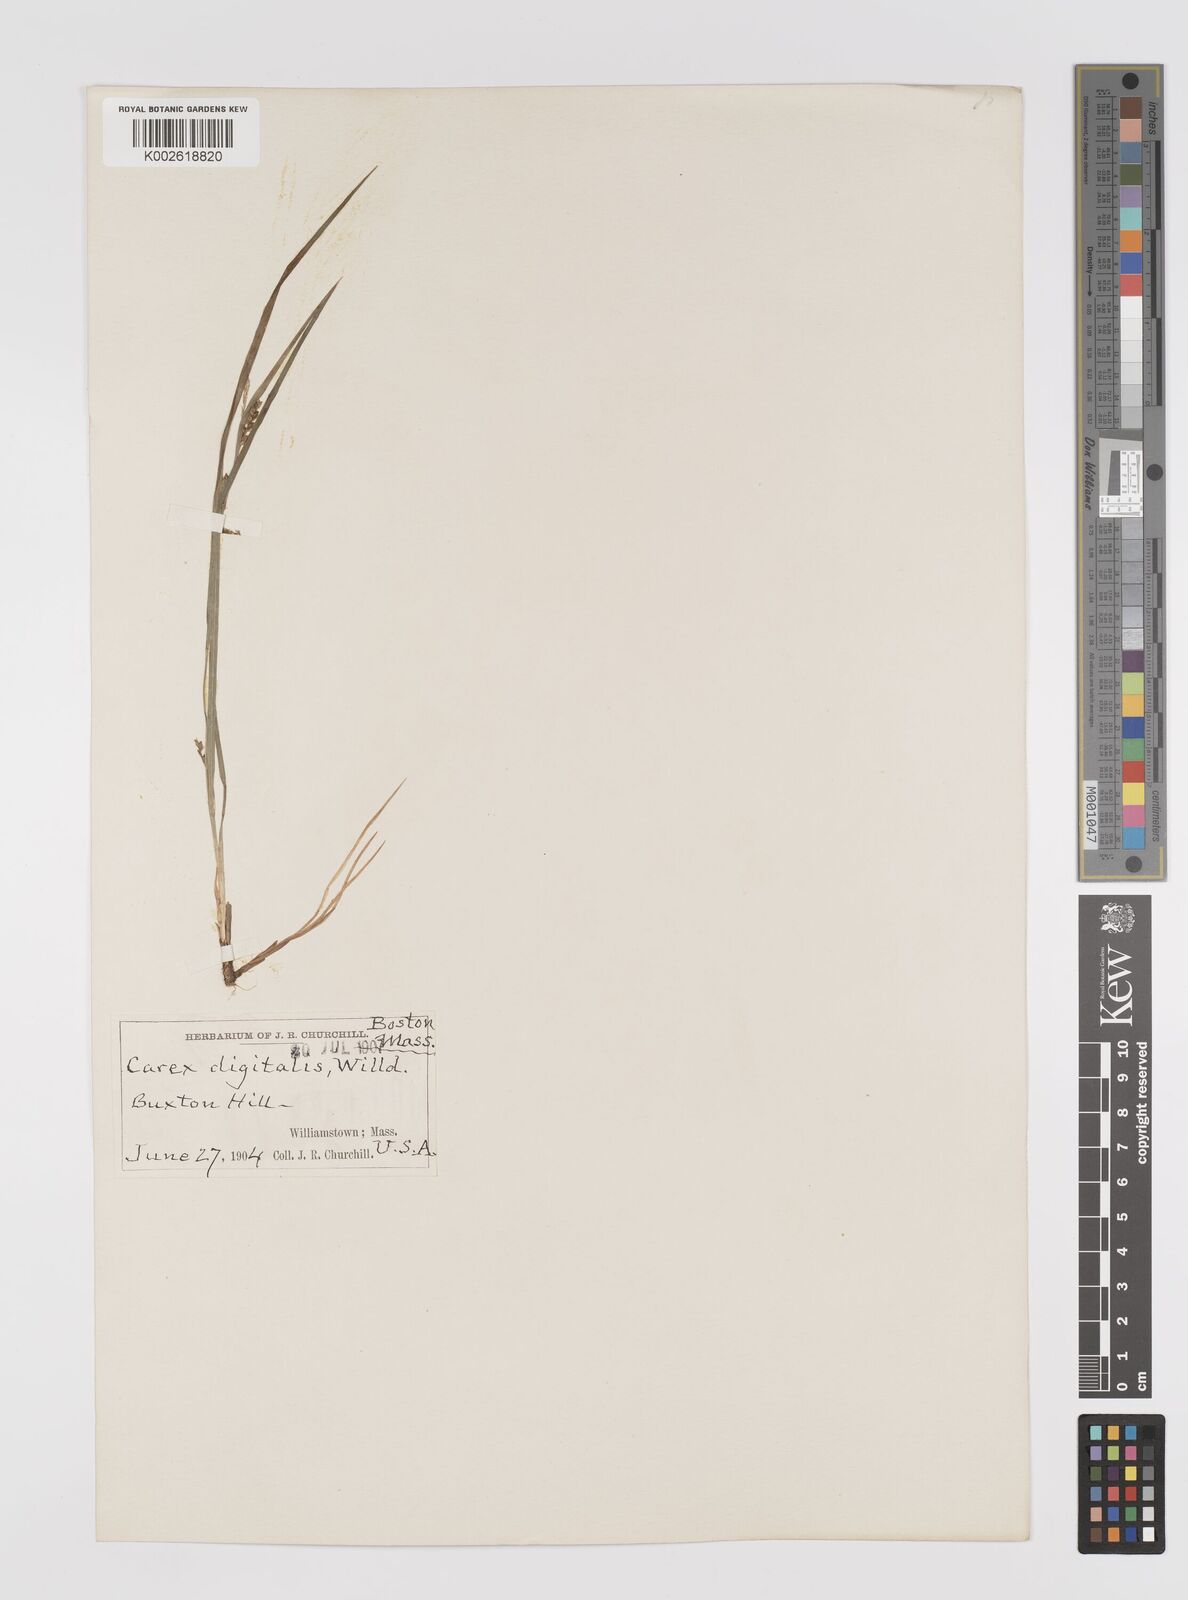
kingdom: Plantae
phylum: Tracheophyta
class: Liliopsida
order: Poales
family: Cyperaceae
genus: Carex
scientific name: Carex digitalis
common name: Slender wood sedge
